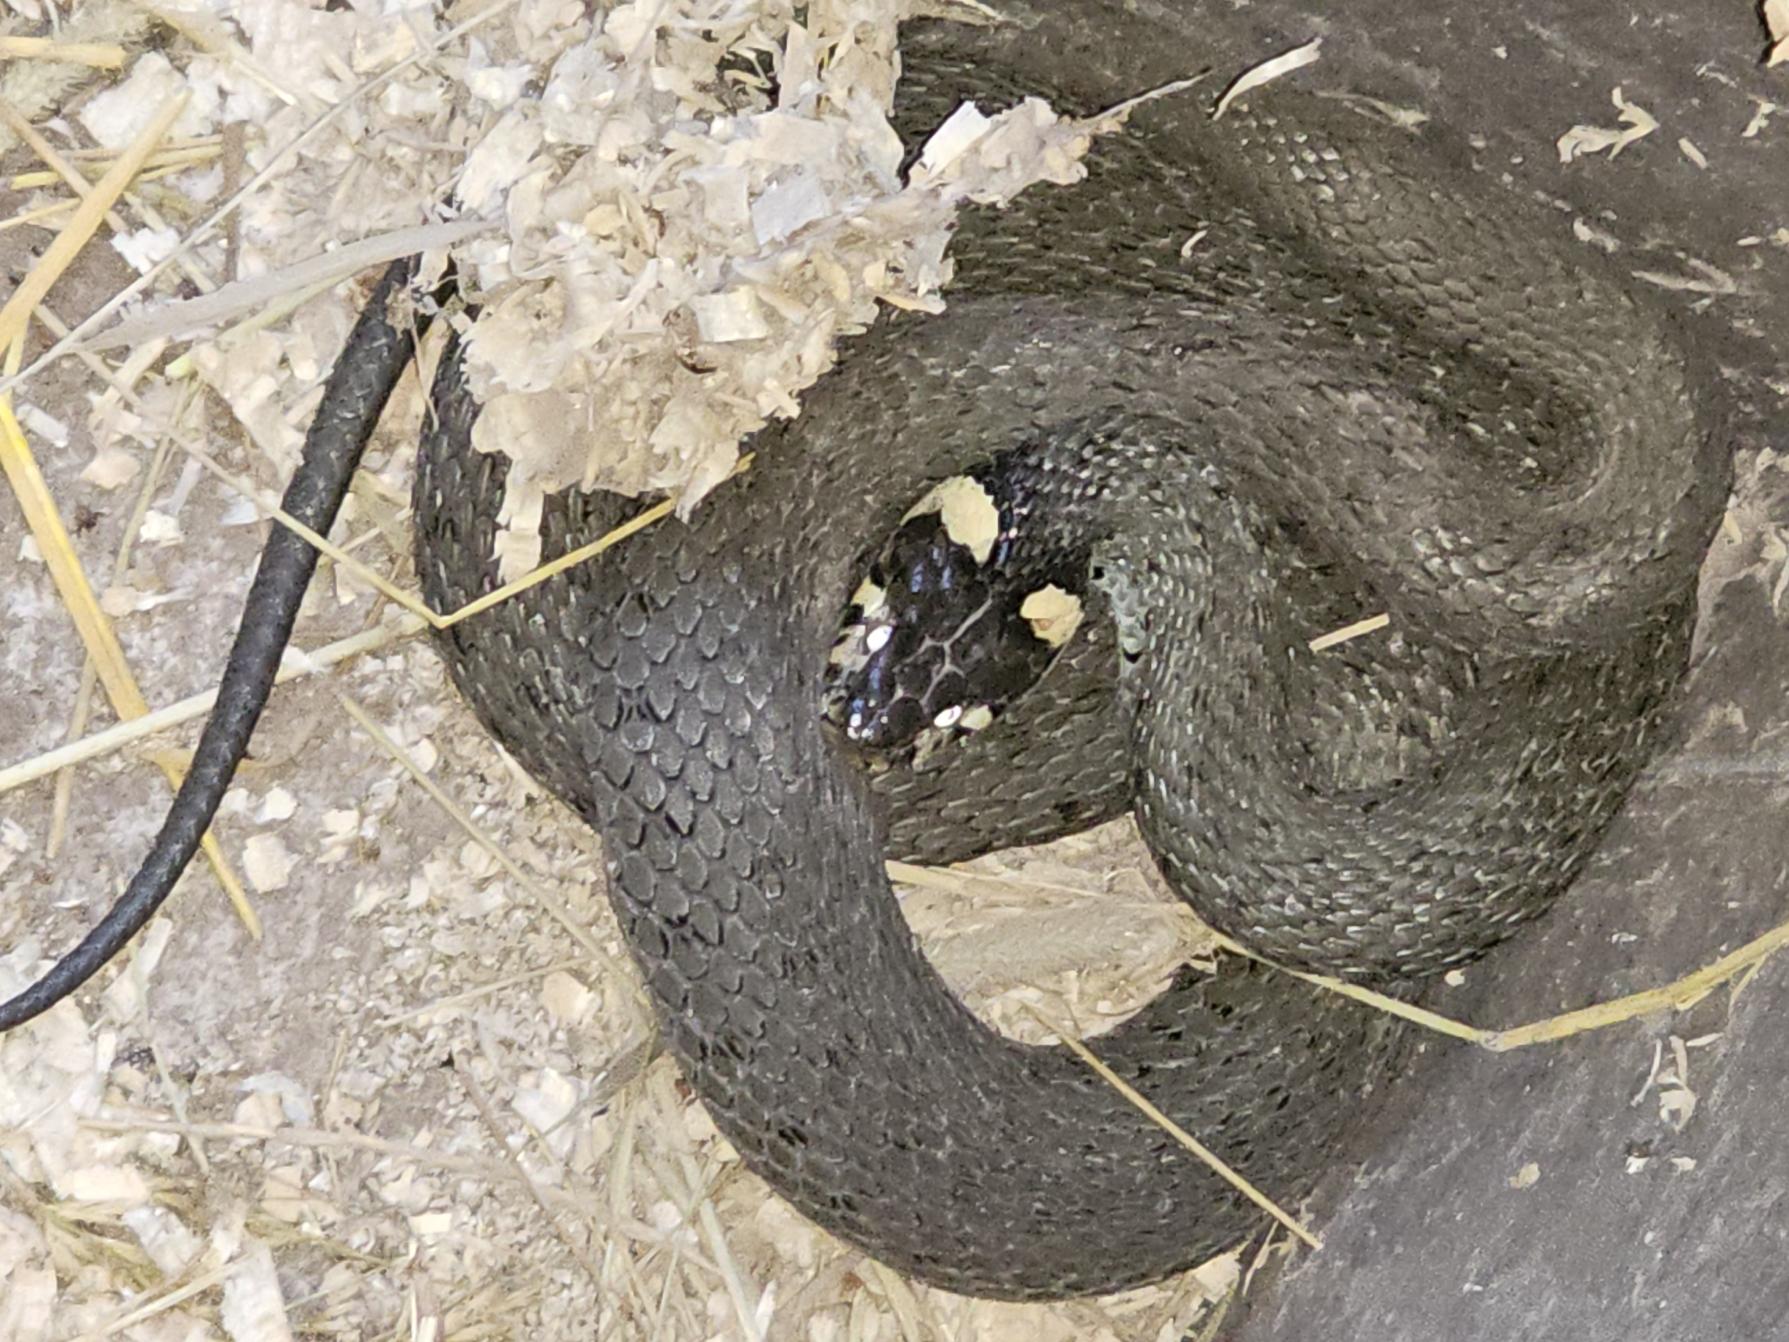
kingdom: Animalia
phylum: Chordata
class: Squamata
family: Colubridae
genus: Natrix
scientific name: Natrix natrix
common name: Snog
